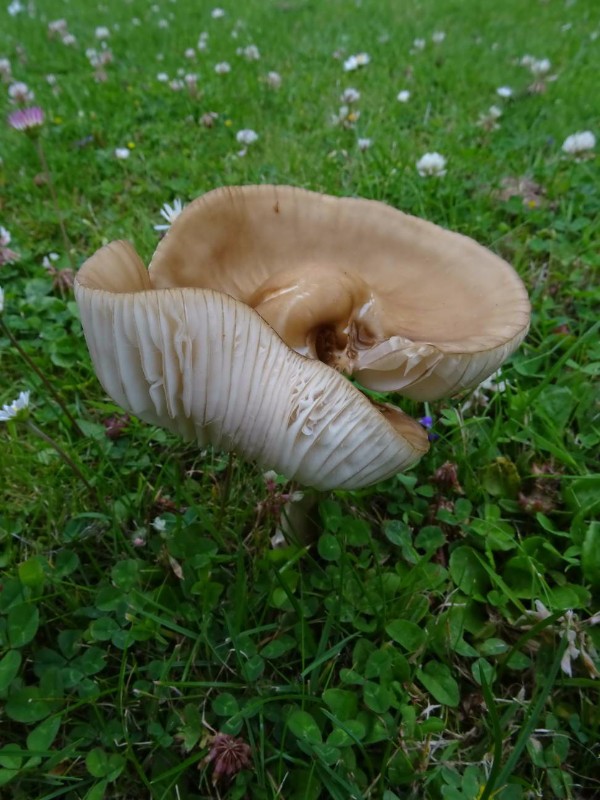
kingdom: Fungi
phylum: Basidiomycota
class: Agaricomycetes
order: Agaricales
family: Physalacriaceae
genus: Hymenopellis
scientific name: Hymenopellis radicata
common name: almindelig pælerodshat
